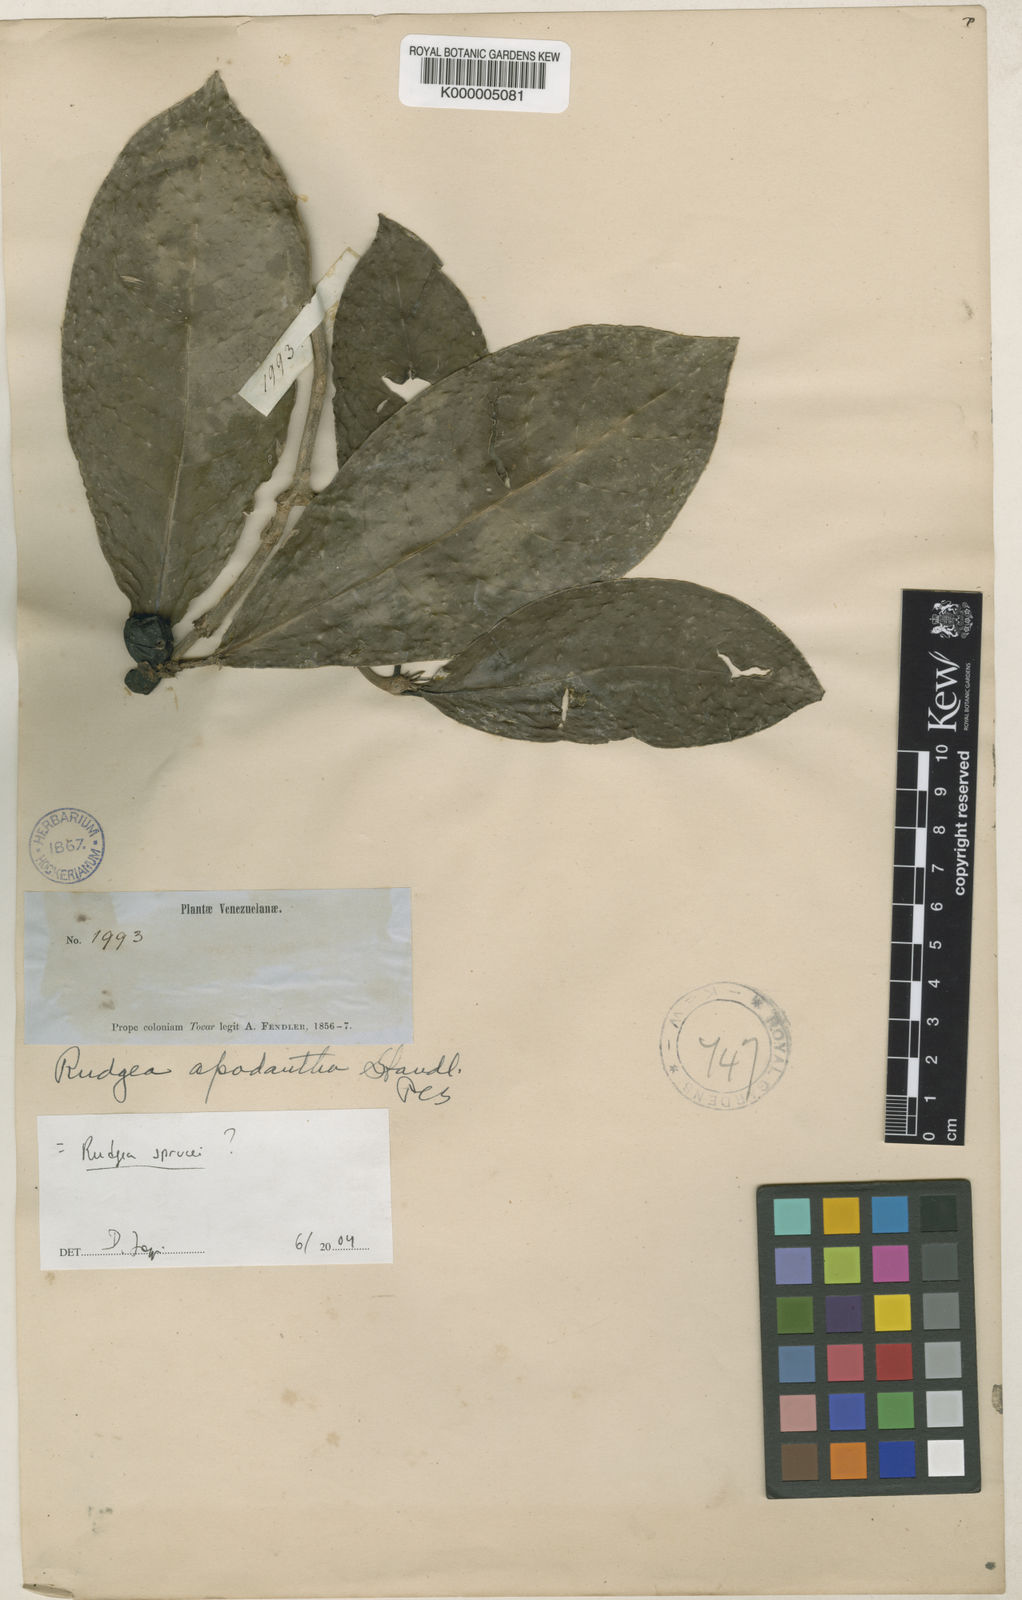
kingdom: Plantae
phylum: Tracheophyta
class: Magnoliopsida
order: Gentianales
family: Rubiaceae
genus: Rudgea
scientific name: Rudgea sprucei
